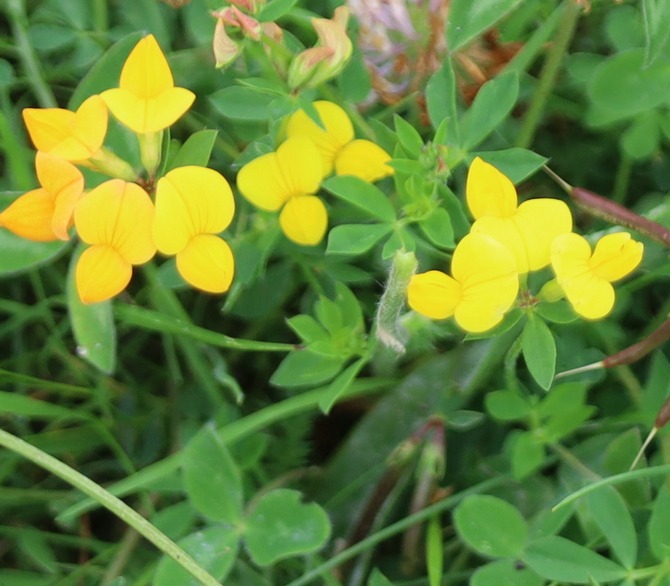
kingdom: Plantae
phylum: Tracheophyta
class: Magnoliopsida
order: Fabales
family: Fabaceae
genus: Lotus
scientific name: Lotus corniculatus
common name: Almindelig kællingetand
